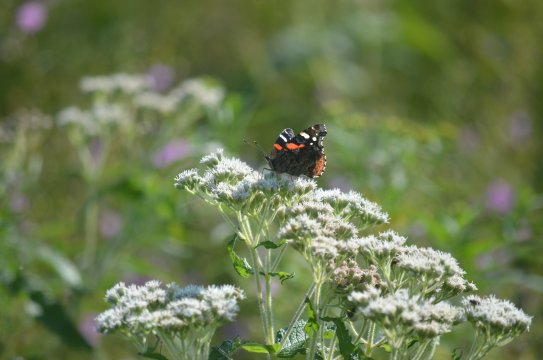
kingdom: Animalia
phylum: Arthropoda
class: Insecta
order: Lepidoptera
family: Nymphalidae
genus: Vanessa
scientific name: Vanessa atalanta
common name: Red Admiral
